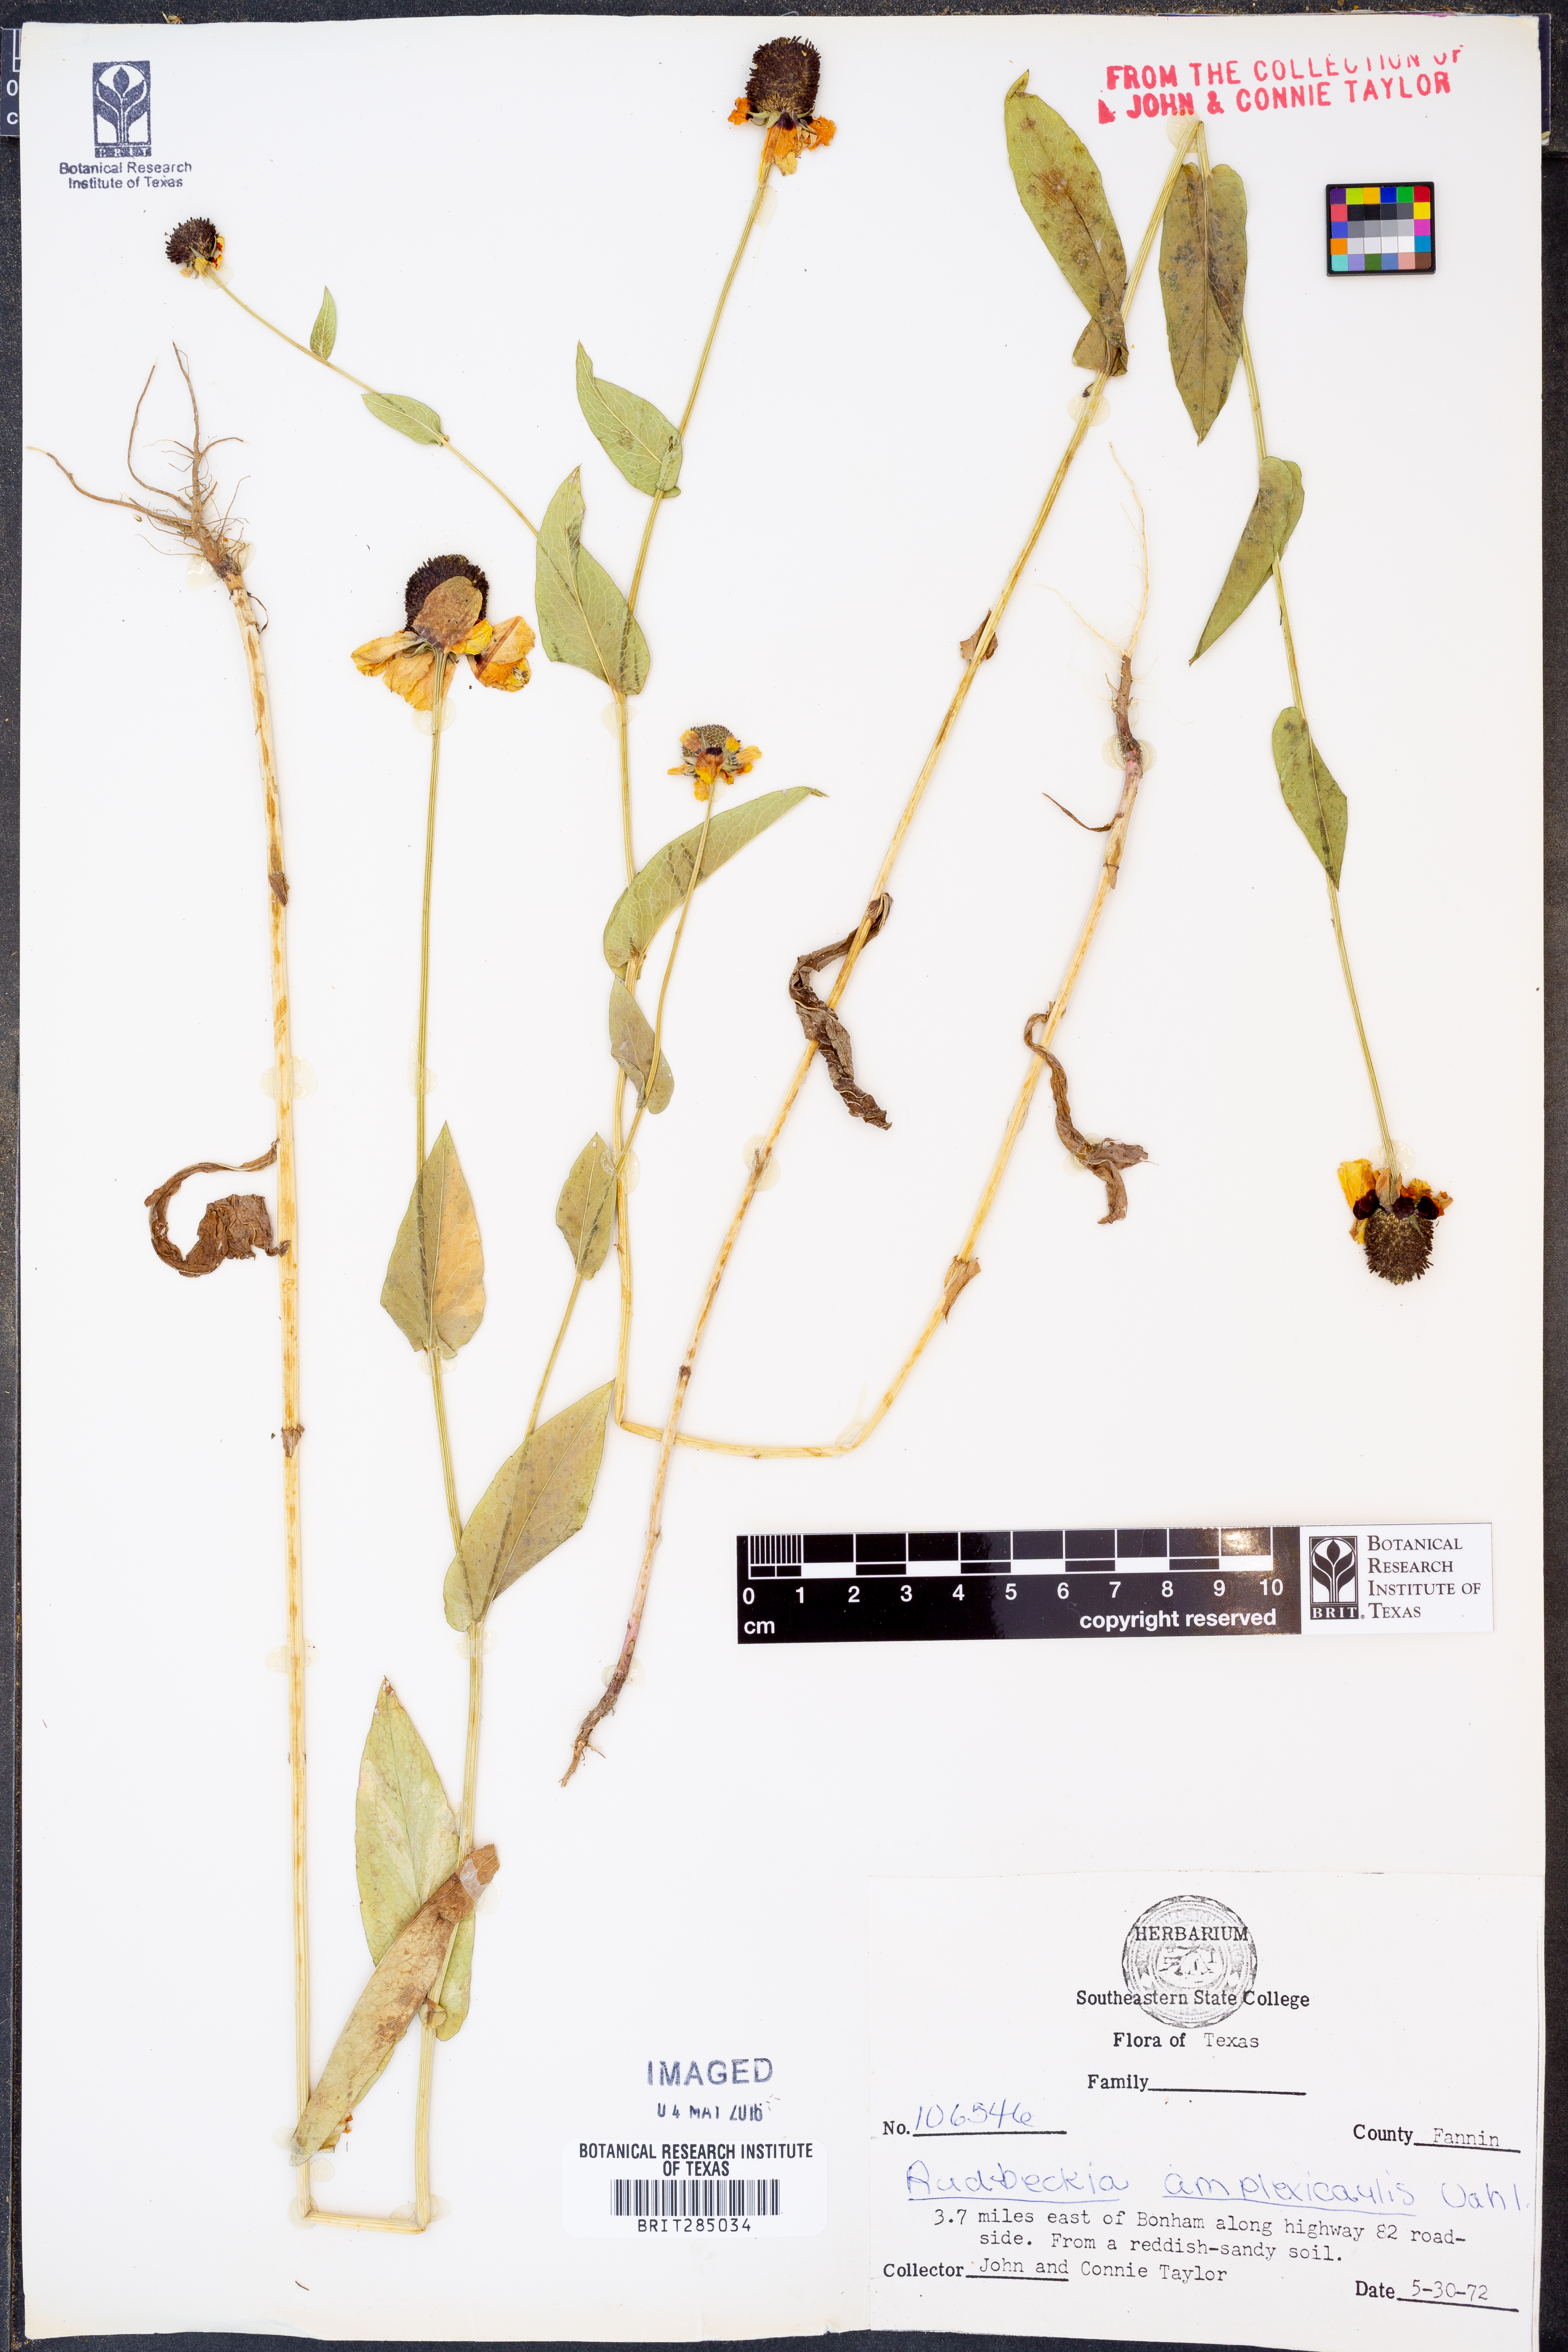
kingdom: Plantae
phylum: Tracheophyta
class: Magnoliopsida
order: Asterales
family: Asteraceae
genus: Rudbeckia
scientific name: Rudbeckia amplexicaulis
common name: Clasping-leaf coneflower
